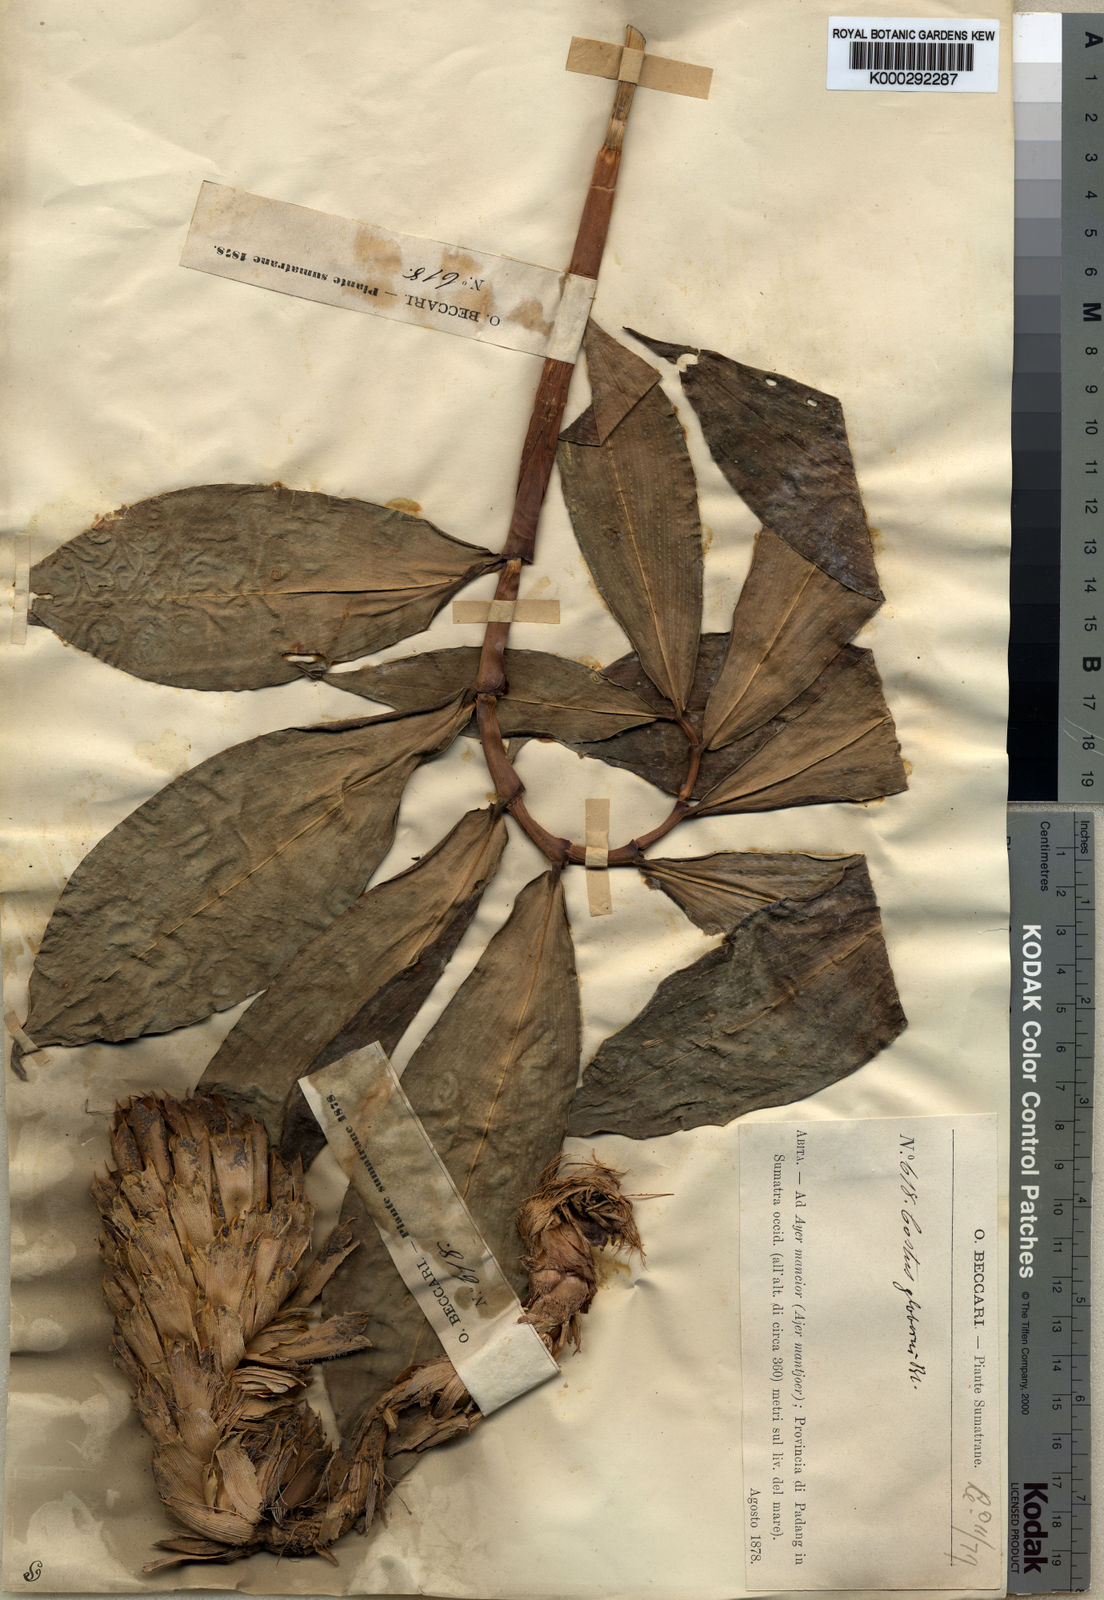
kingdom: Plantae
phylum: Tracheophyta
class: Liliopsida
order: Zingiberales
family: Costaceae
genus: Costus
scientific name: Costus acanthocephalus
